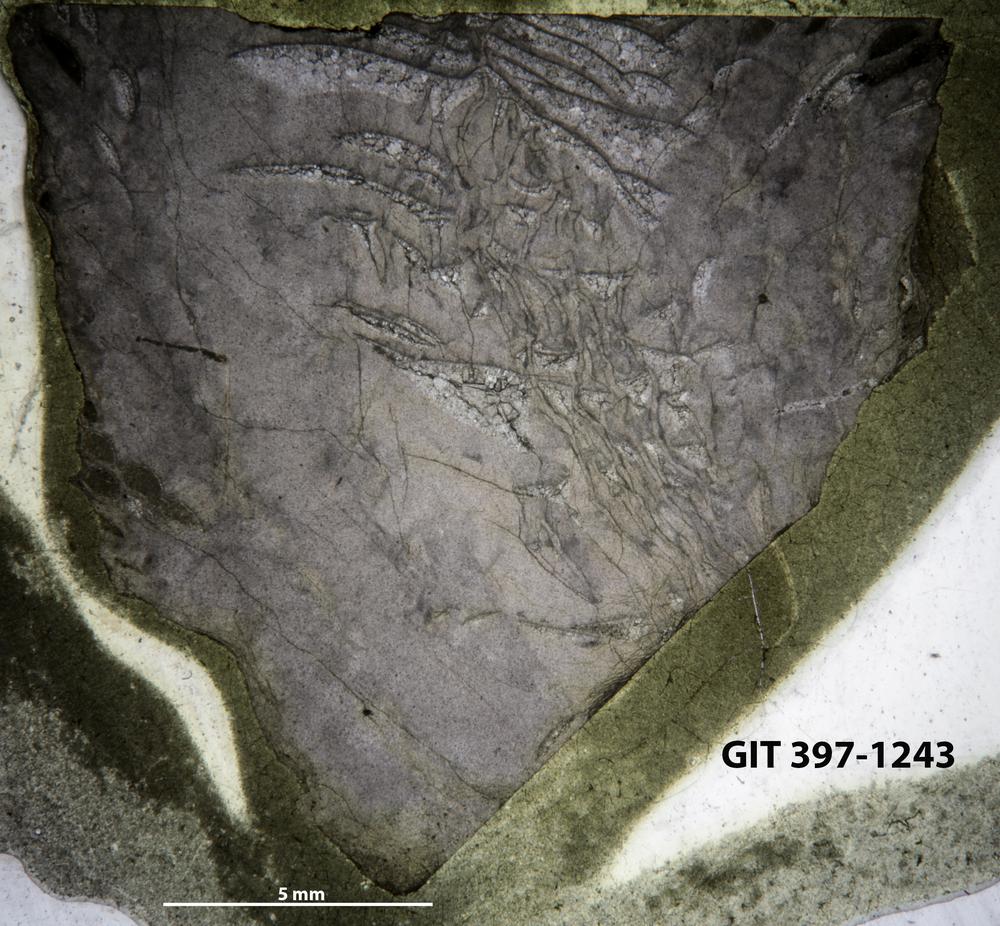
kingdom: Animalia
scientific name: Animalia
